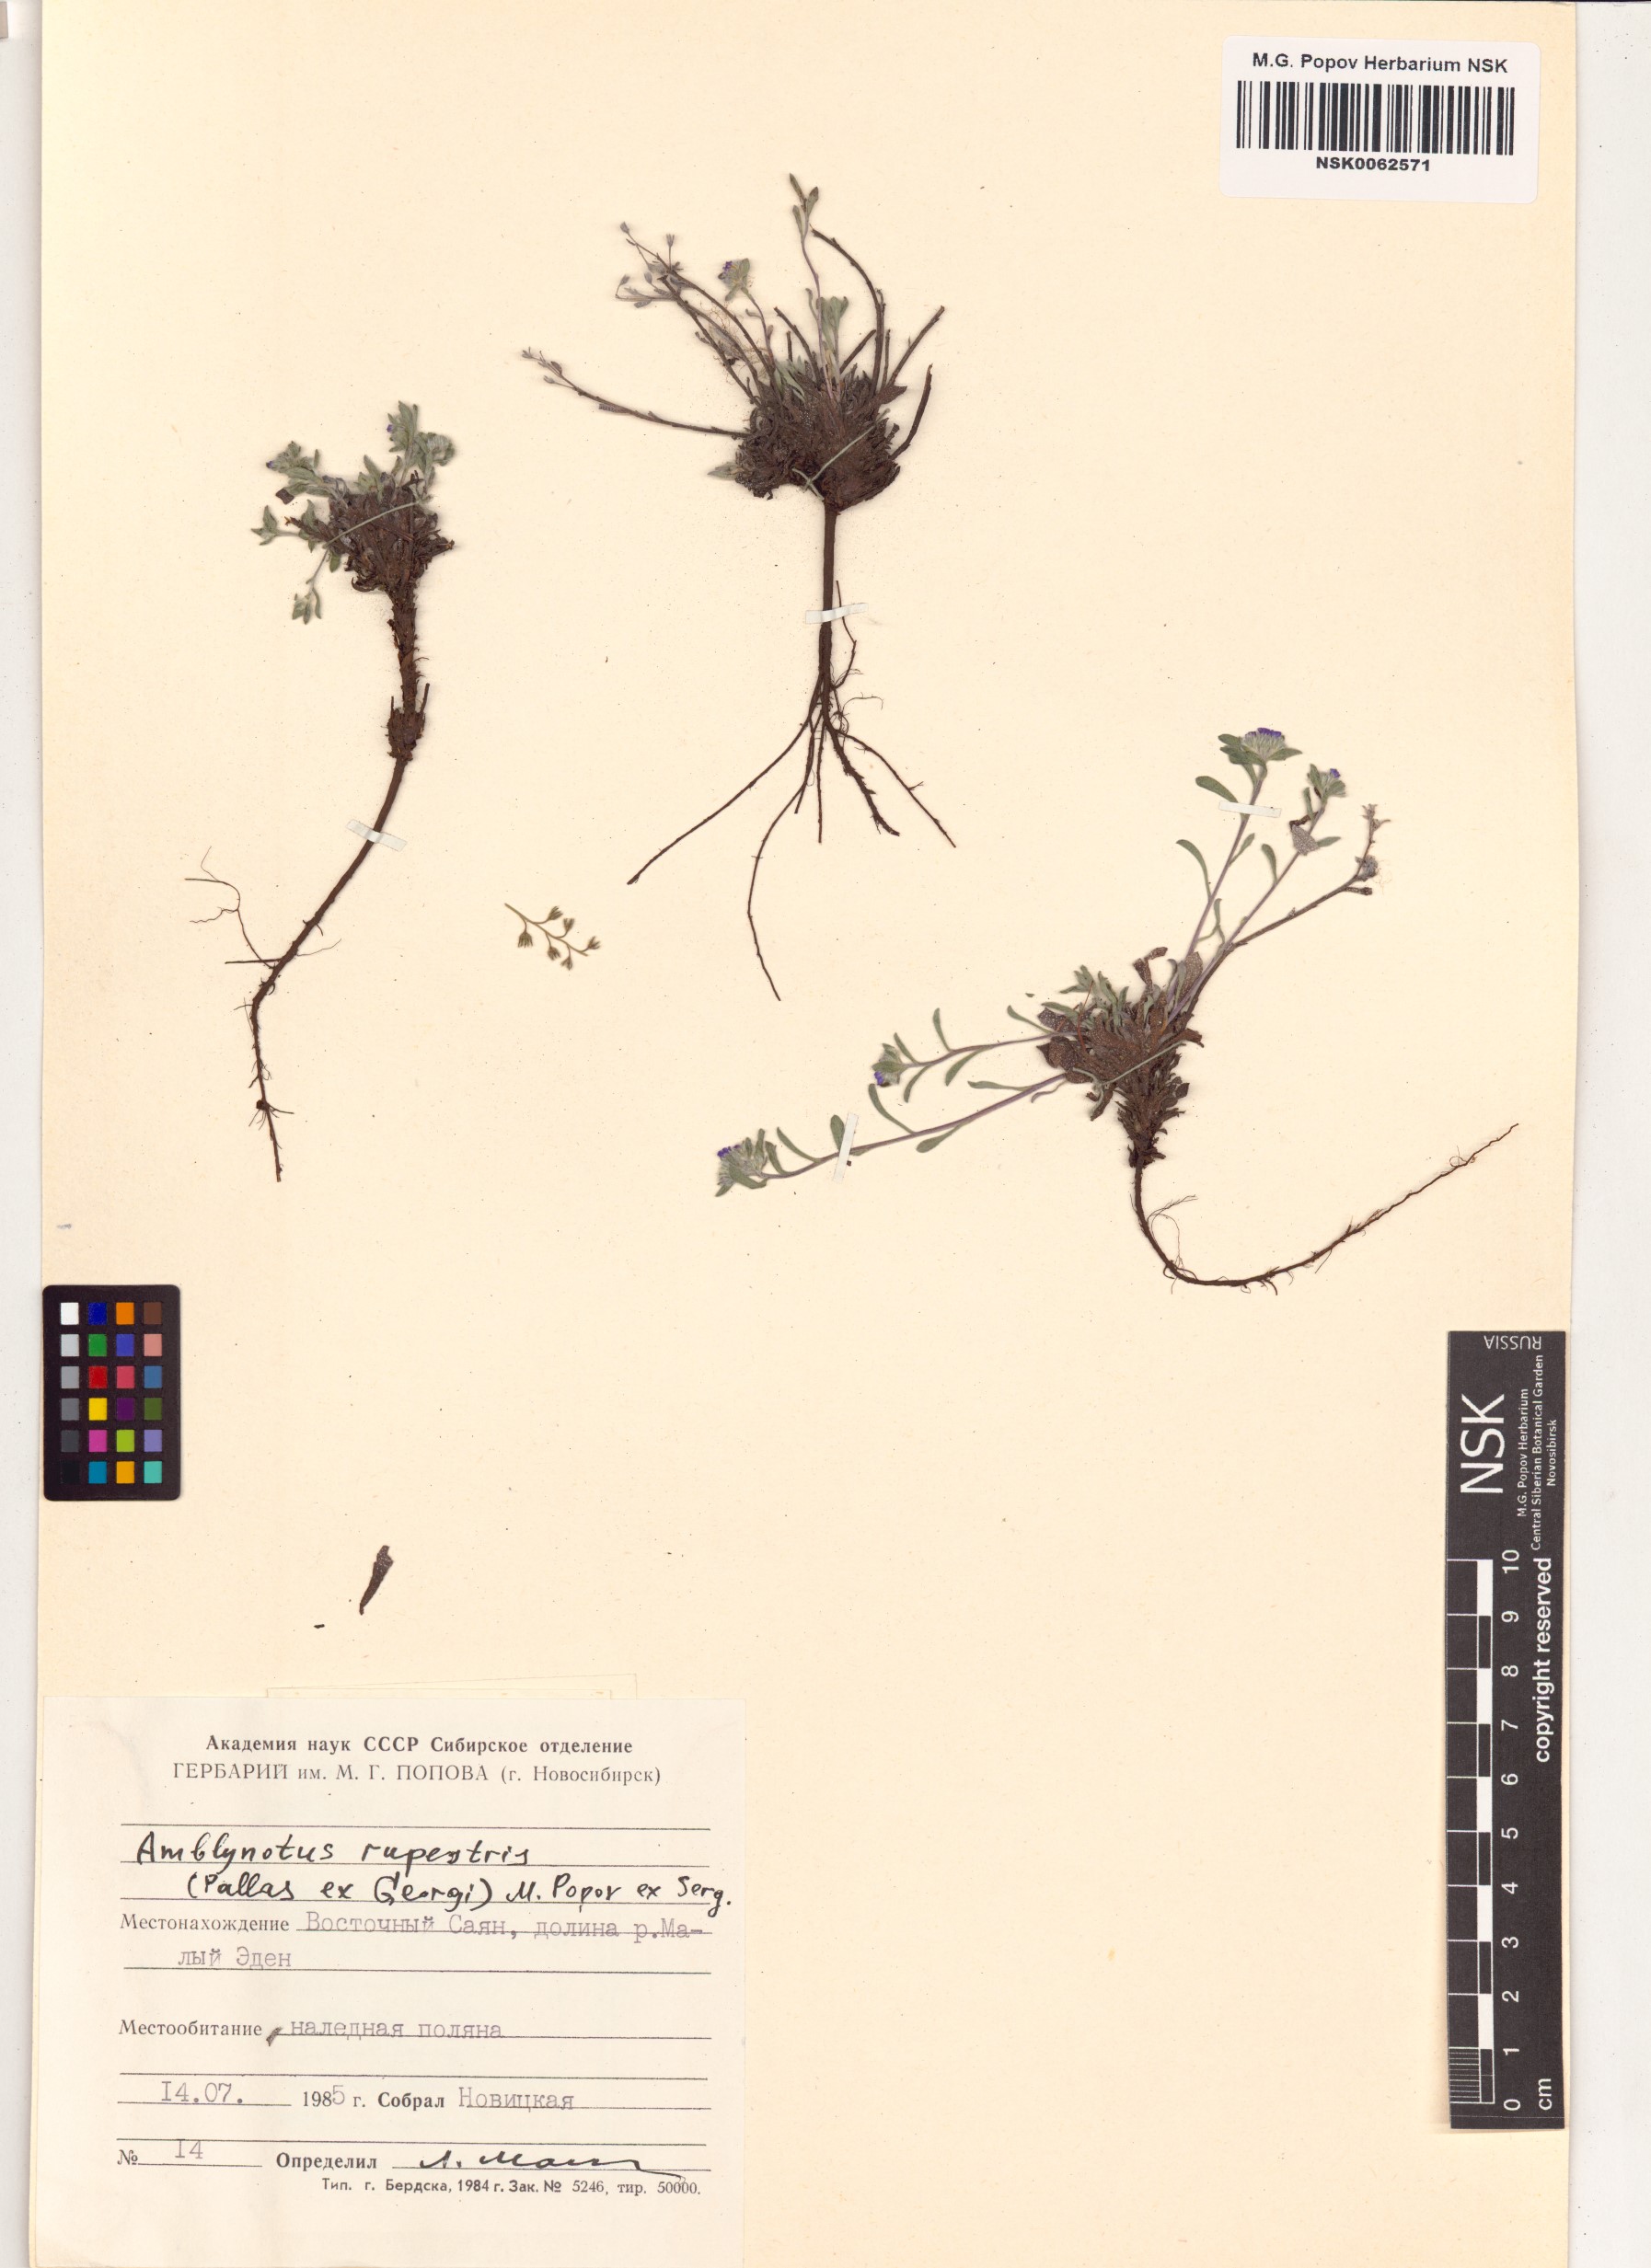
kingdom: Plantae
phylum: Tracheophyta
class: Magnoliopsida
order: Boraginales
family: Boraginaceae
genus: Eritrichium
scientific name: Eritrichium rupestre
